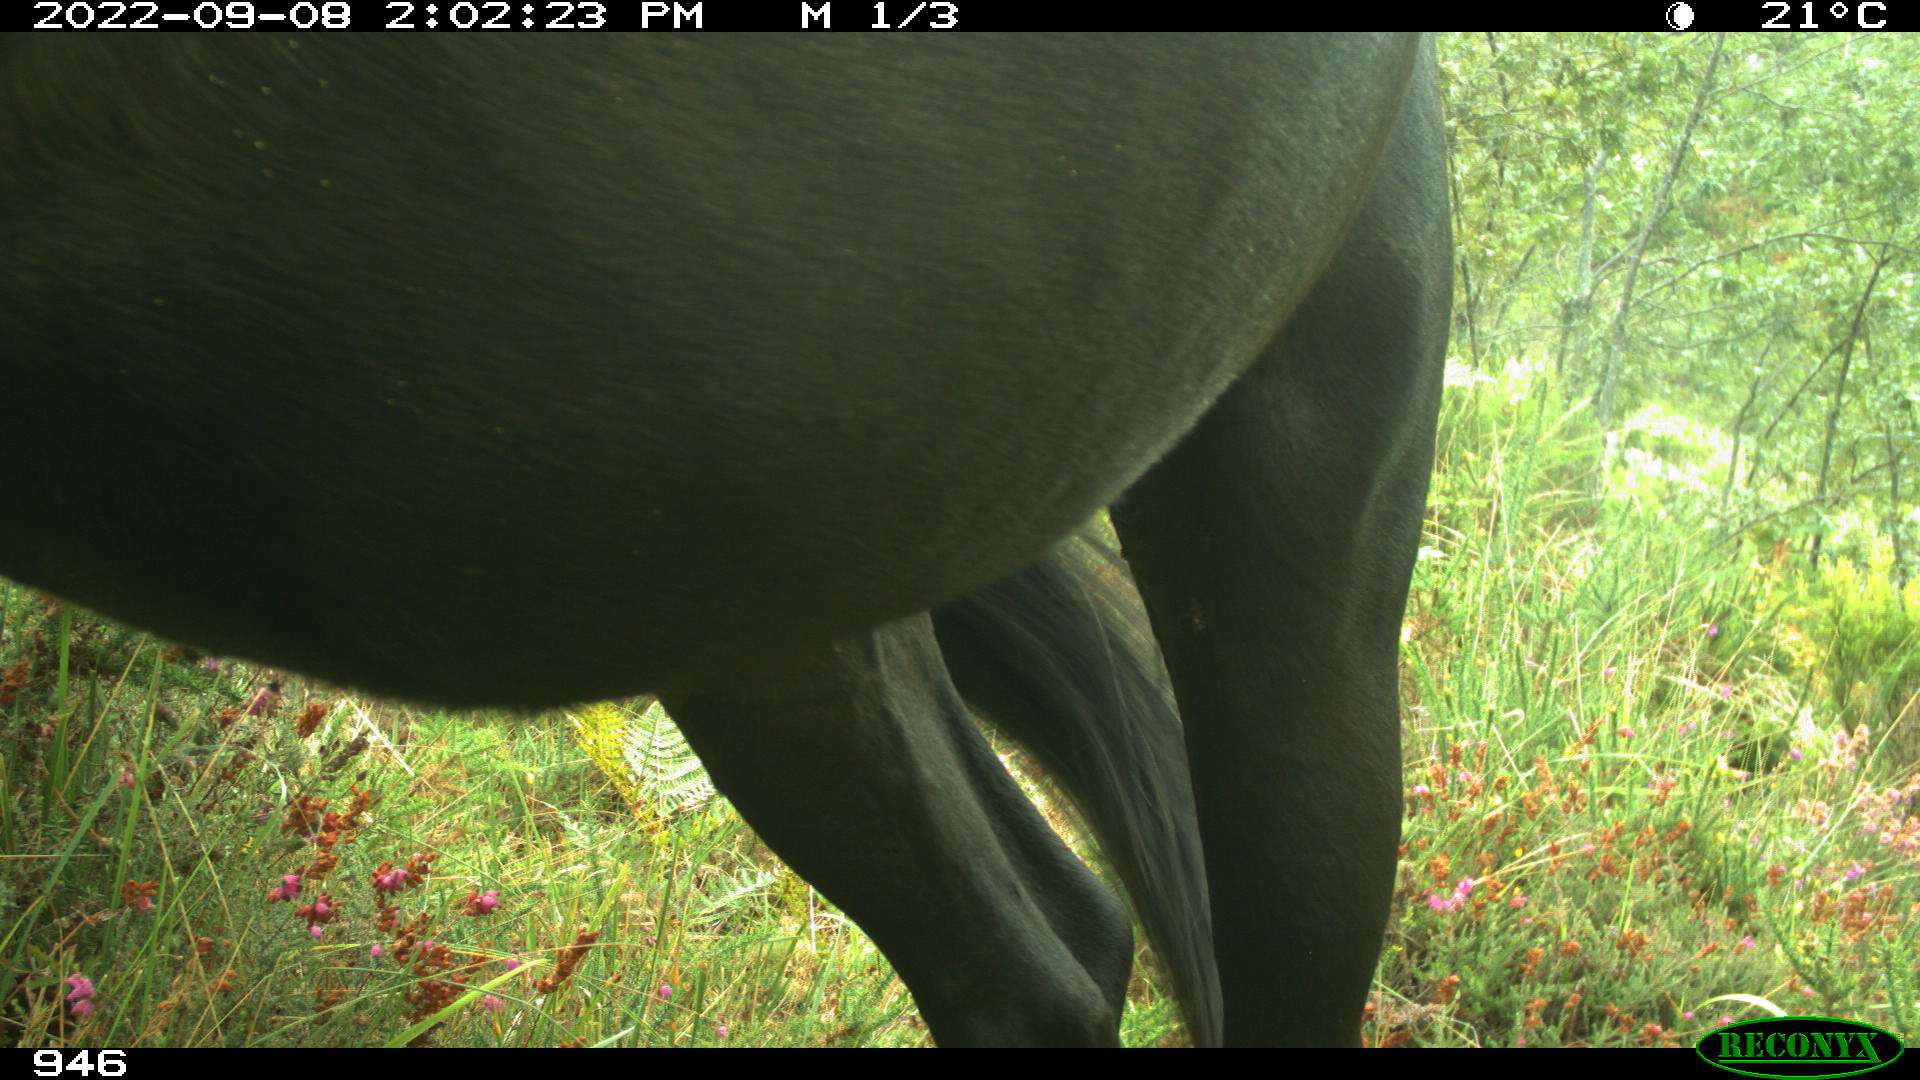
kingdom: Animalia
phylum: Chordata
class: Mammalia
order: Perissodactyla
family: Equidae
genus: Equus
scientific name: Equus caballus
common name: Horse
